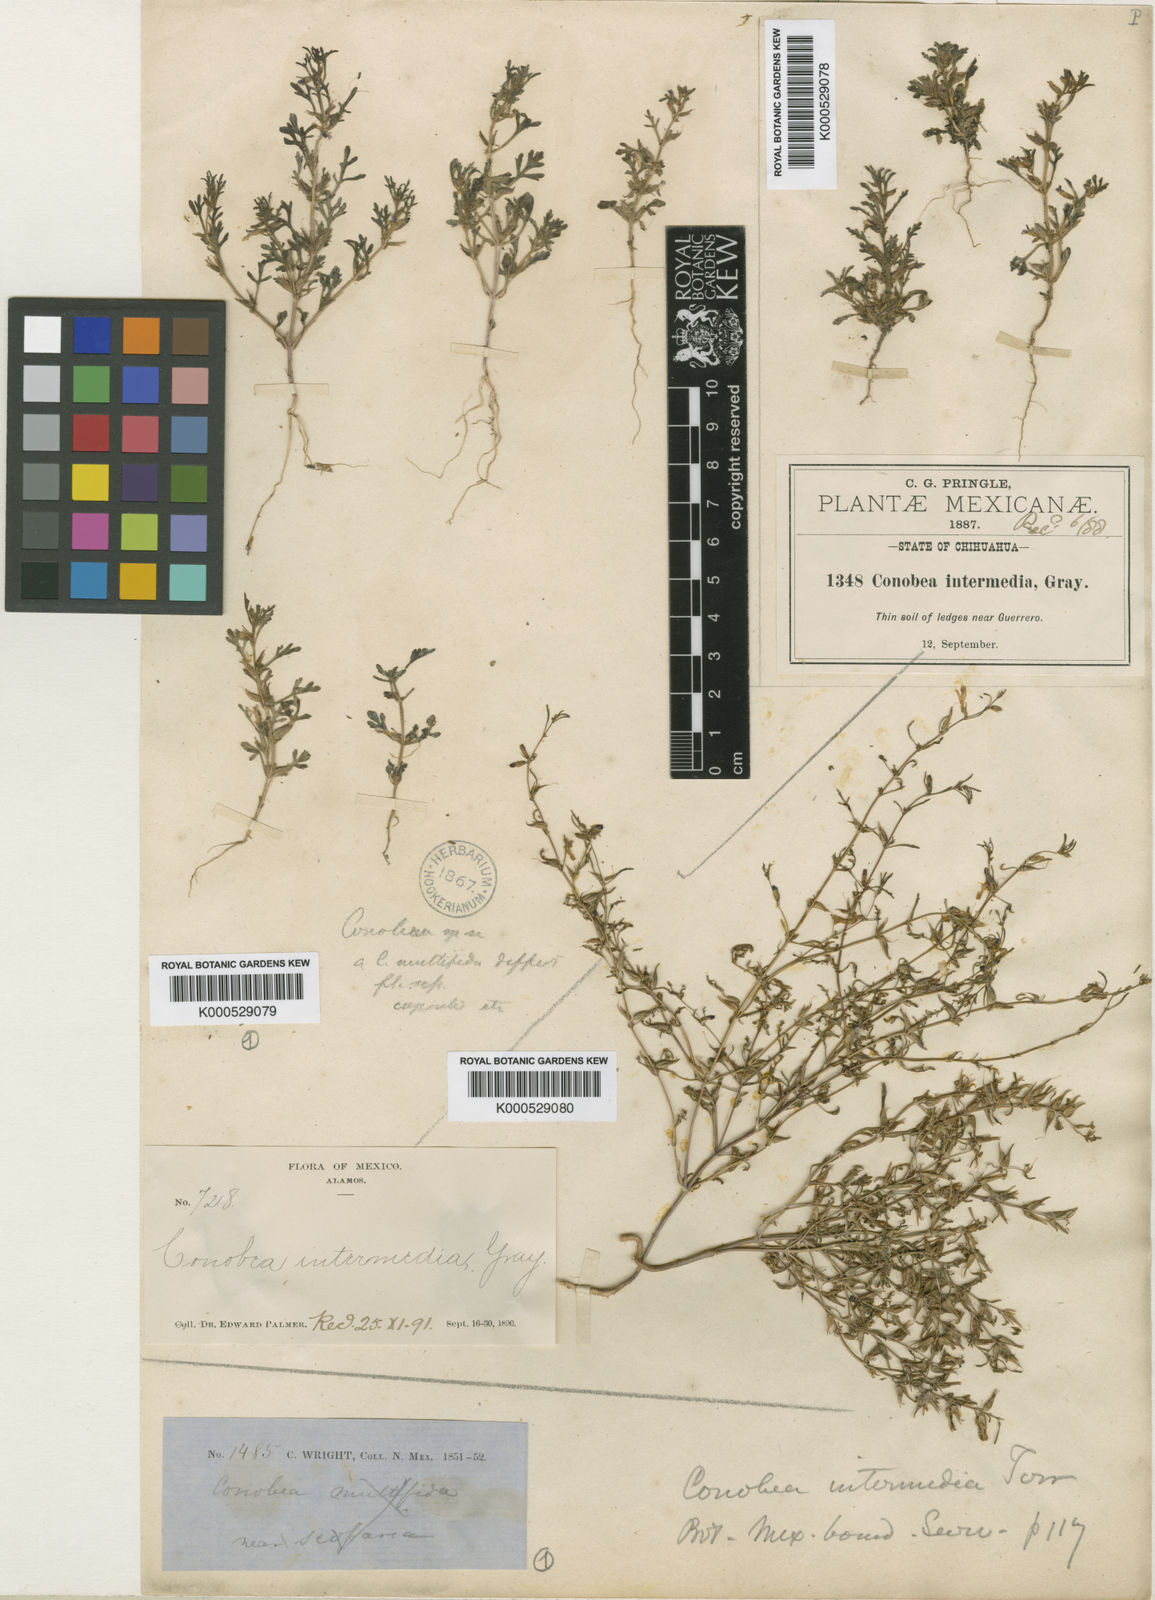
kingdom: Plantae
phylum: Tracheophyta
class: Magnoliopsida
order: Lamiales
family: Plantaginaceae
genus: Schistophragma
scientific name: Schistophragma intermedium
